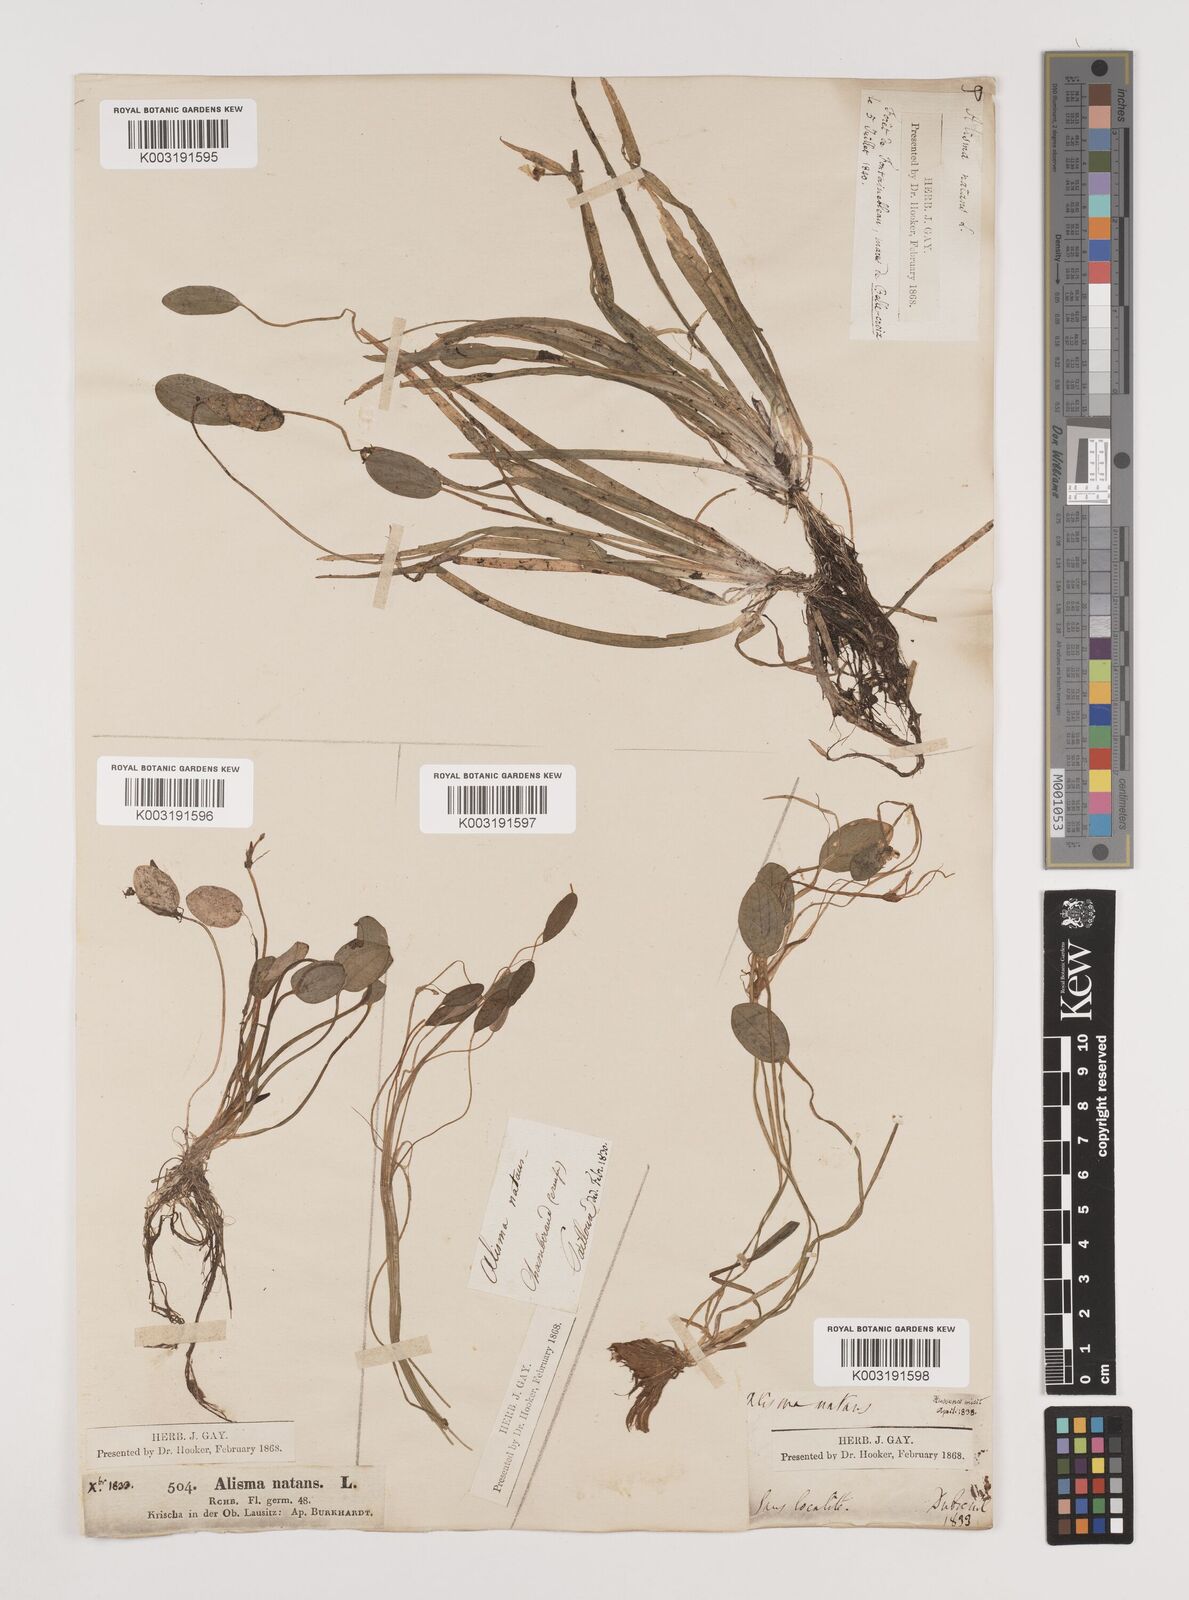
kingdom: Plantae
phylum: Tracheophyta
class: Liliopsida
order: Alismatales
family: Alismataceae
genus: Luronium
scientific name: Luronium natans
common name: Floating water-plantain
